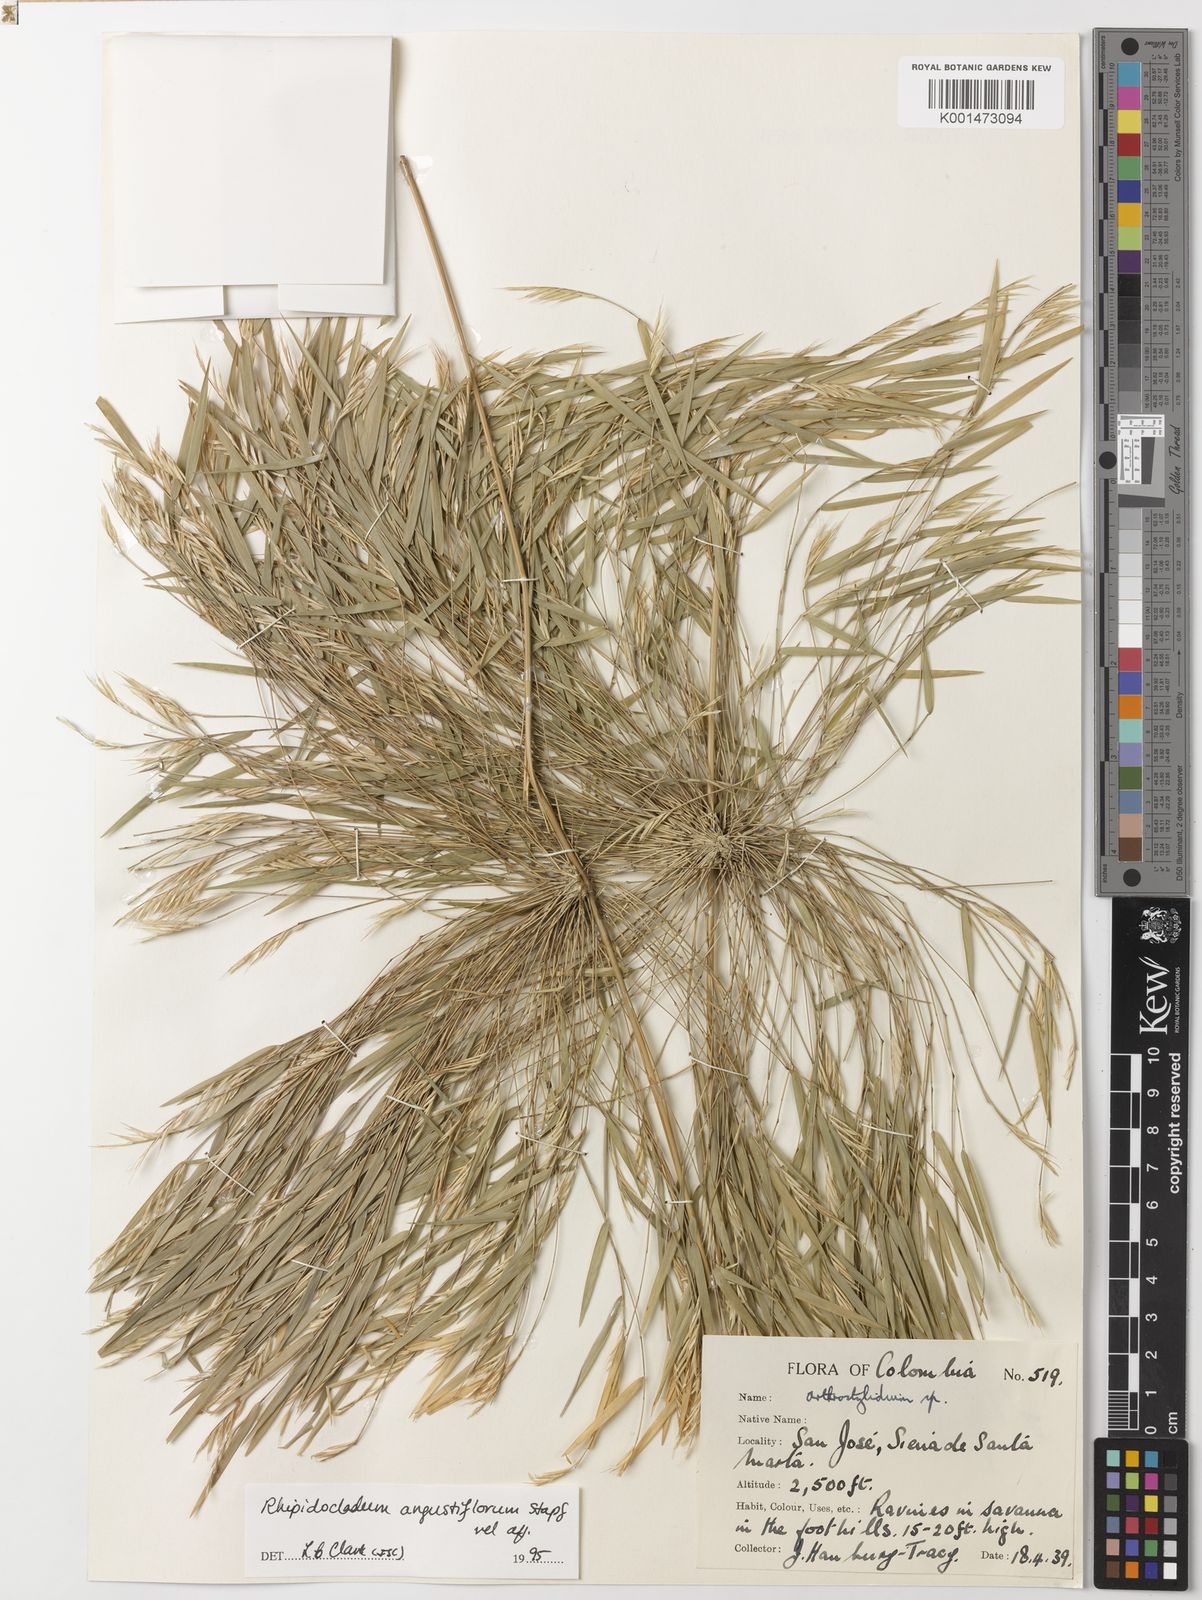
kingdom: Plantae
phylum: Tracheophyta
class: Liliopsida
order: Poales
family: Poaceae
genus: Rhipidocladum
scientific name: Rhipidocladum angustiflorum
